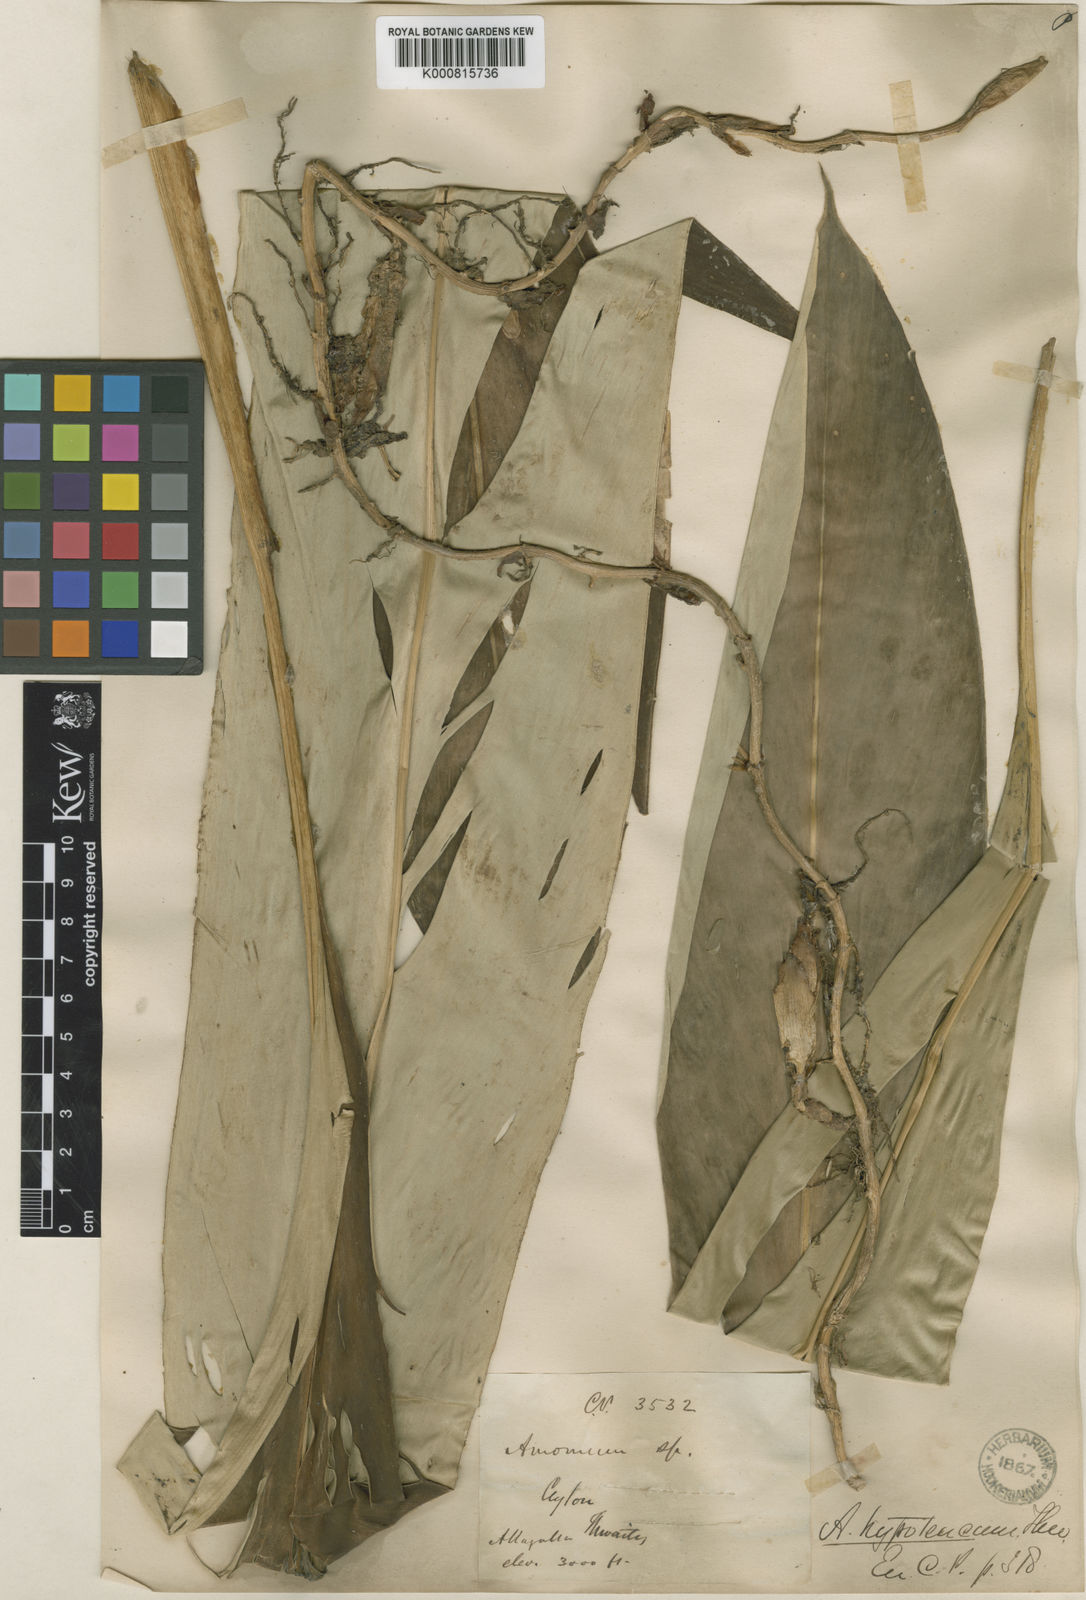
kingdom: Plantae
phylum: Tracheophyta
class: Liliopsida
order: Zingiberales
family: Zingiberaceae
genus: Amomum
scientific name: Amomum hypoleucum
